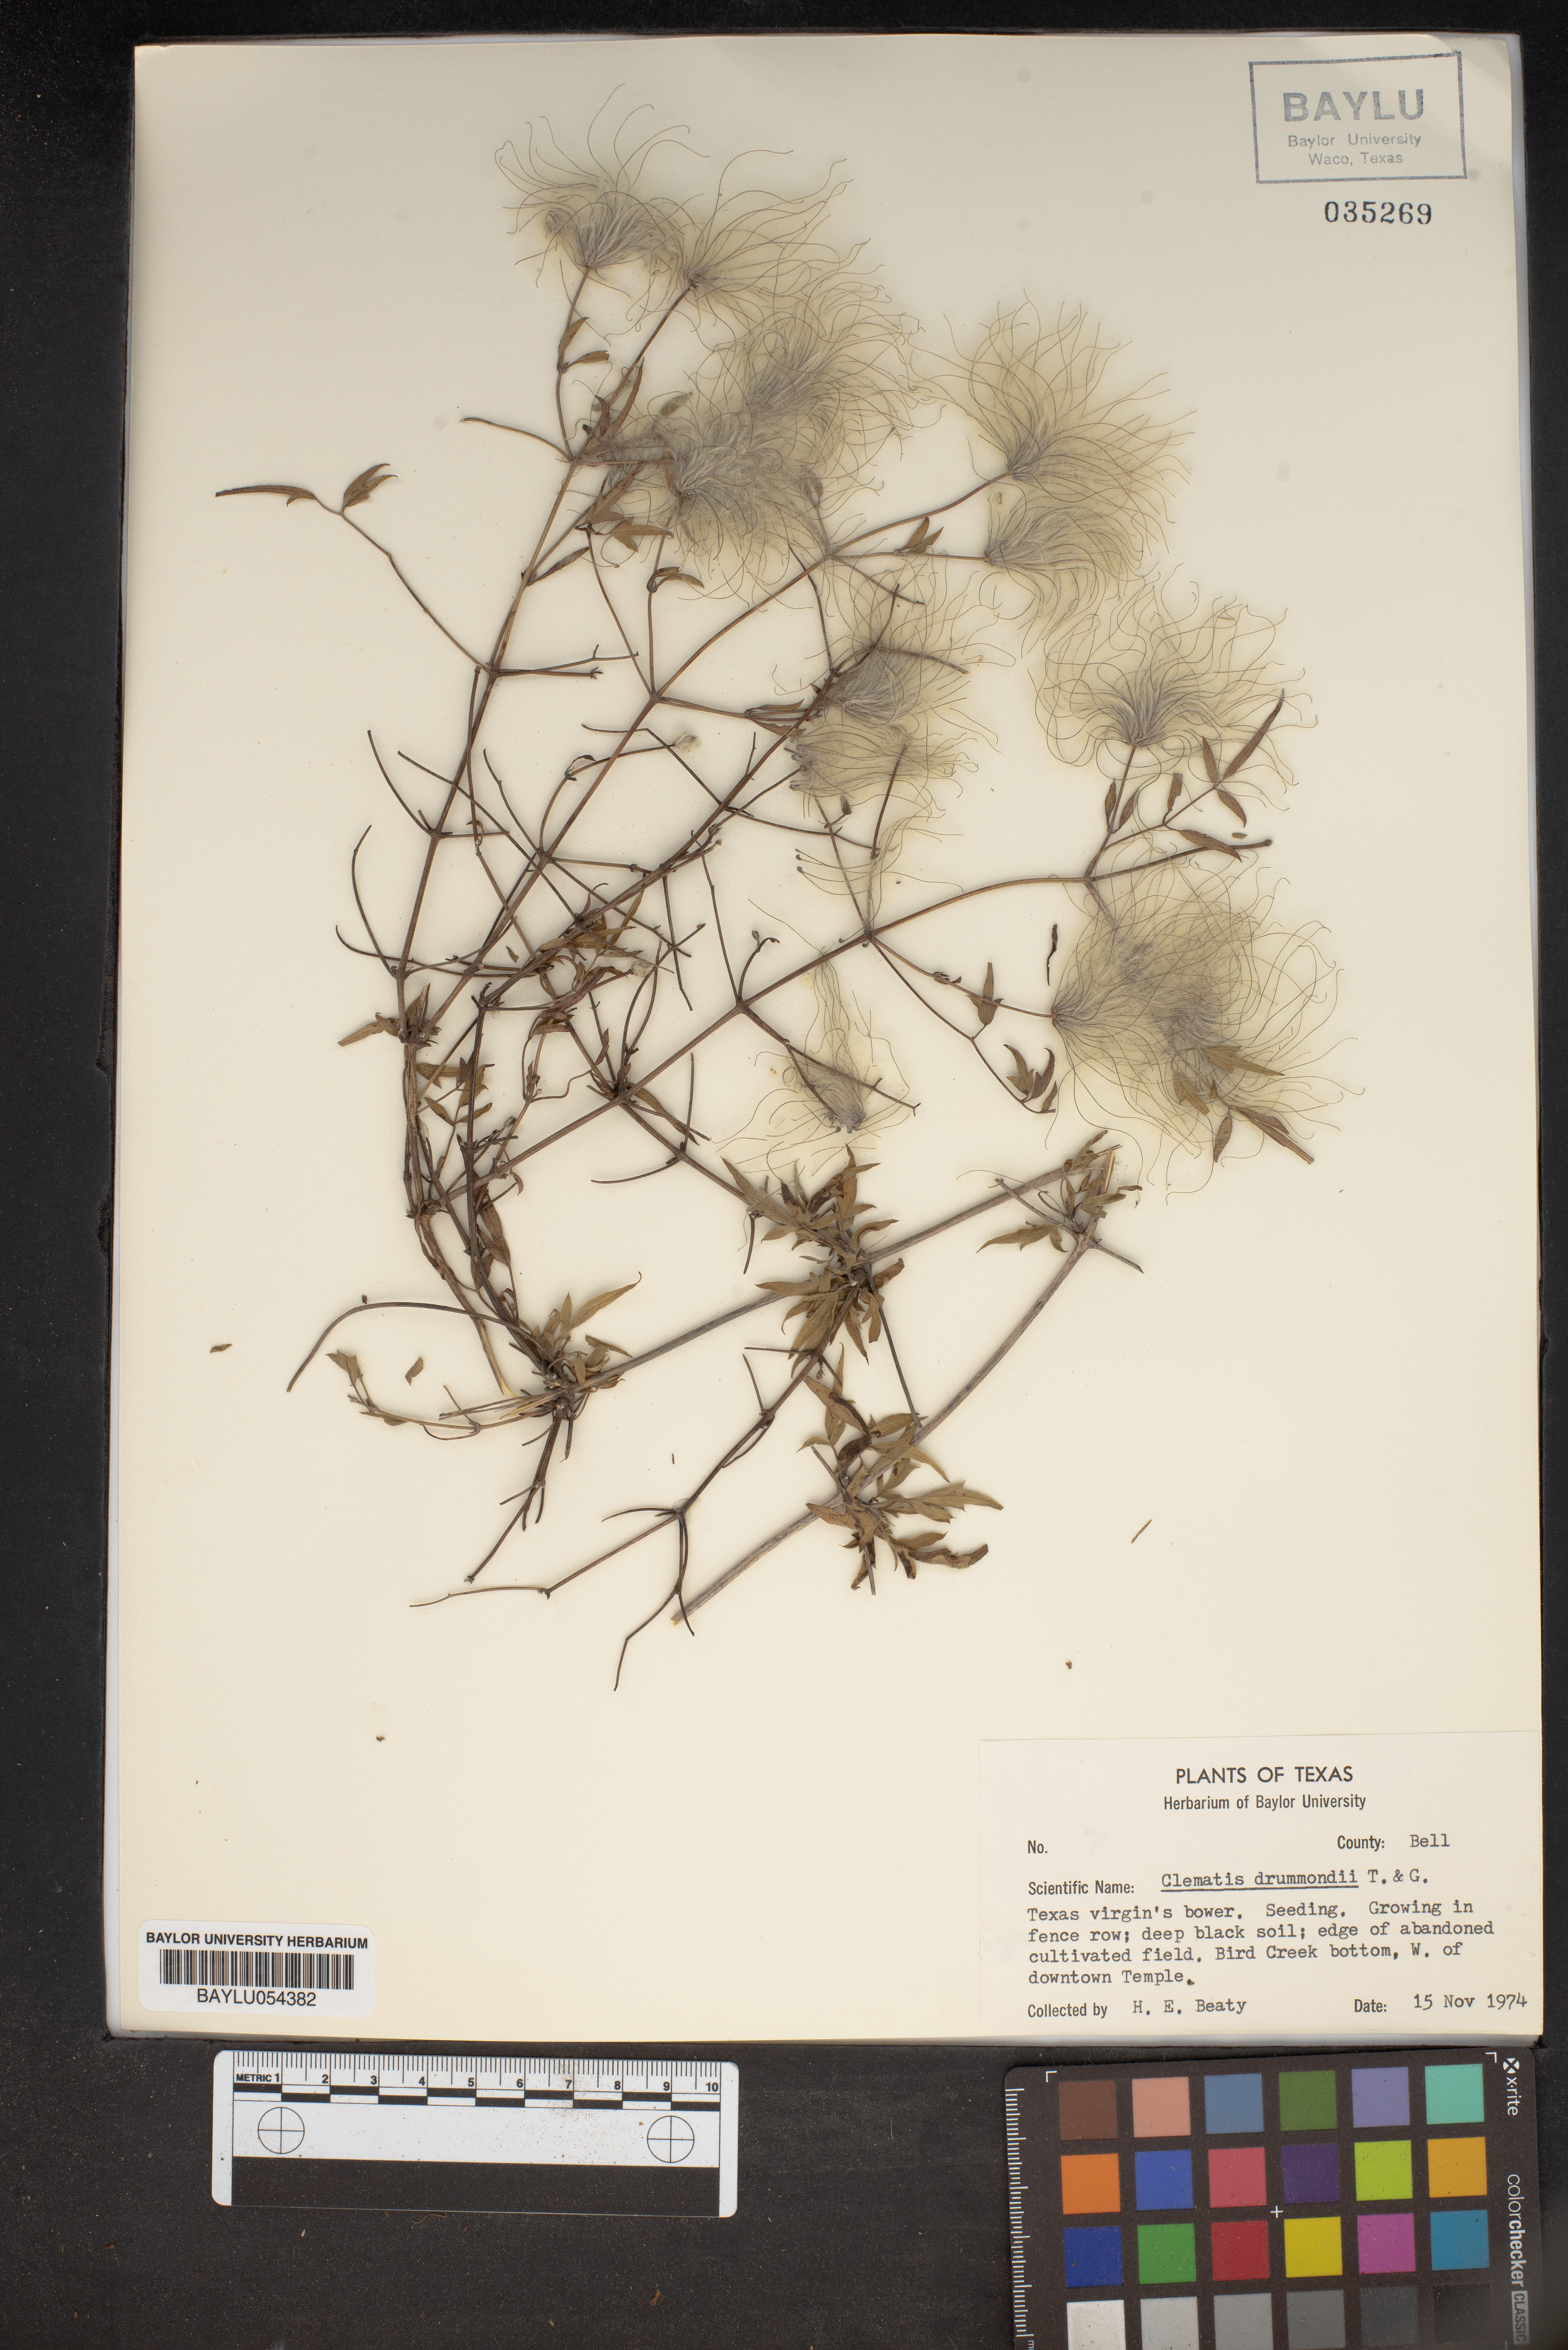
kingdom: Plantae
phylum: Tracheophyta
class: Magnoliopsida
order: Ranunculales
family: Ranunculaceae
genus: Clematis
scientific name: Clematis drummondii
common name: Texas virgin's bower
